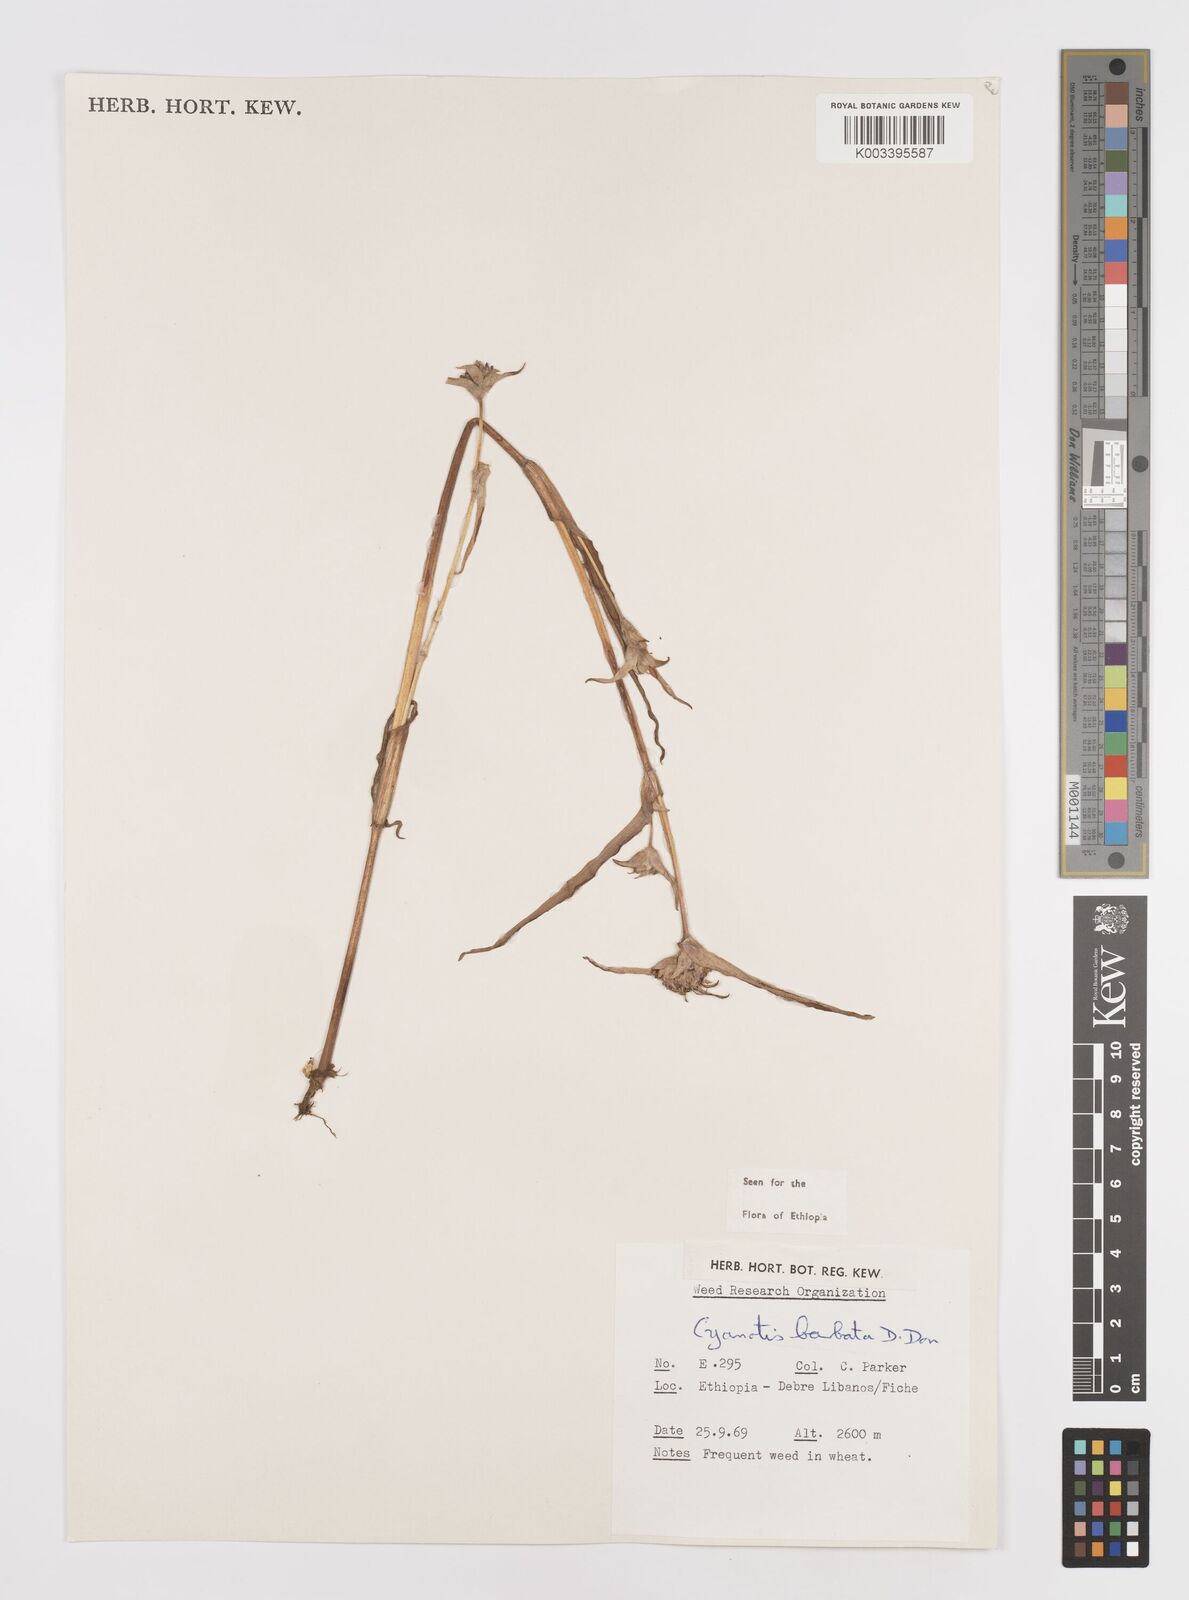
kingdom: Plantae
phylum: Tracheophyta
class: Liliopsida
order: Commelinales
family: Commelinaceae
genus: Cyanotis
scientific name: Cyanotis vaga
